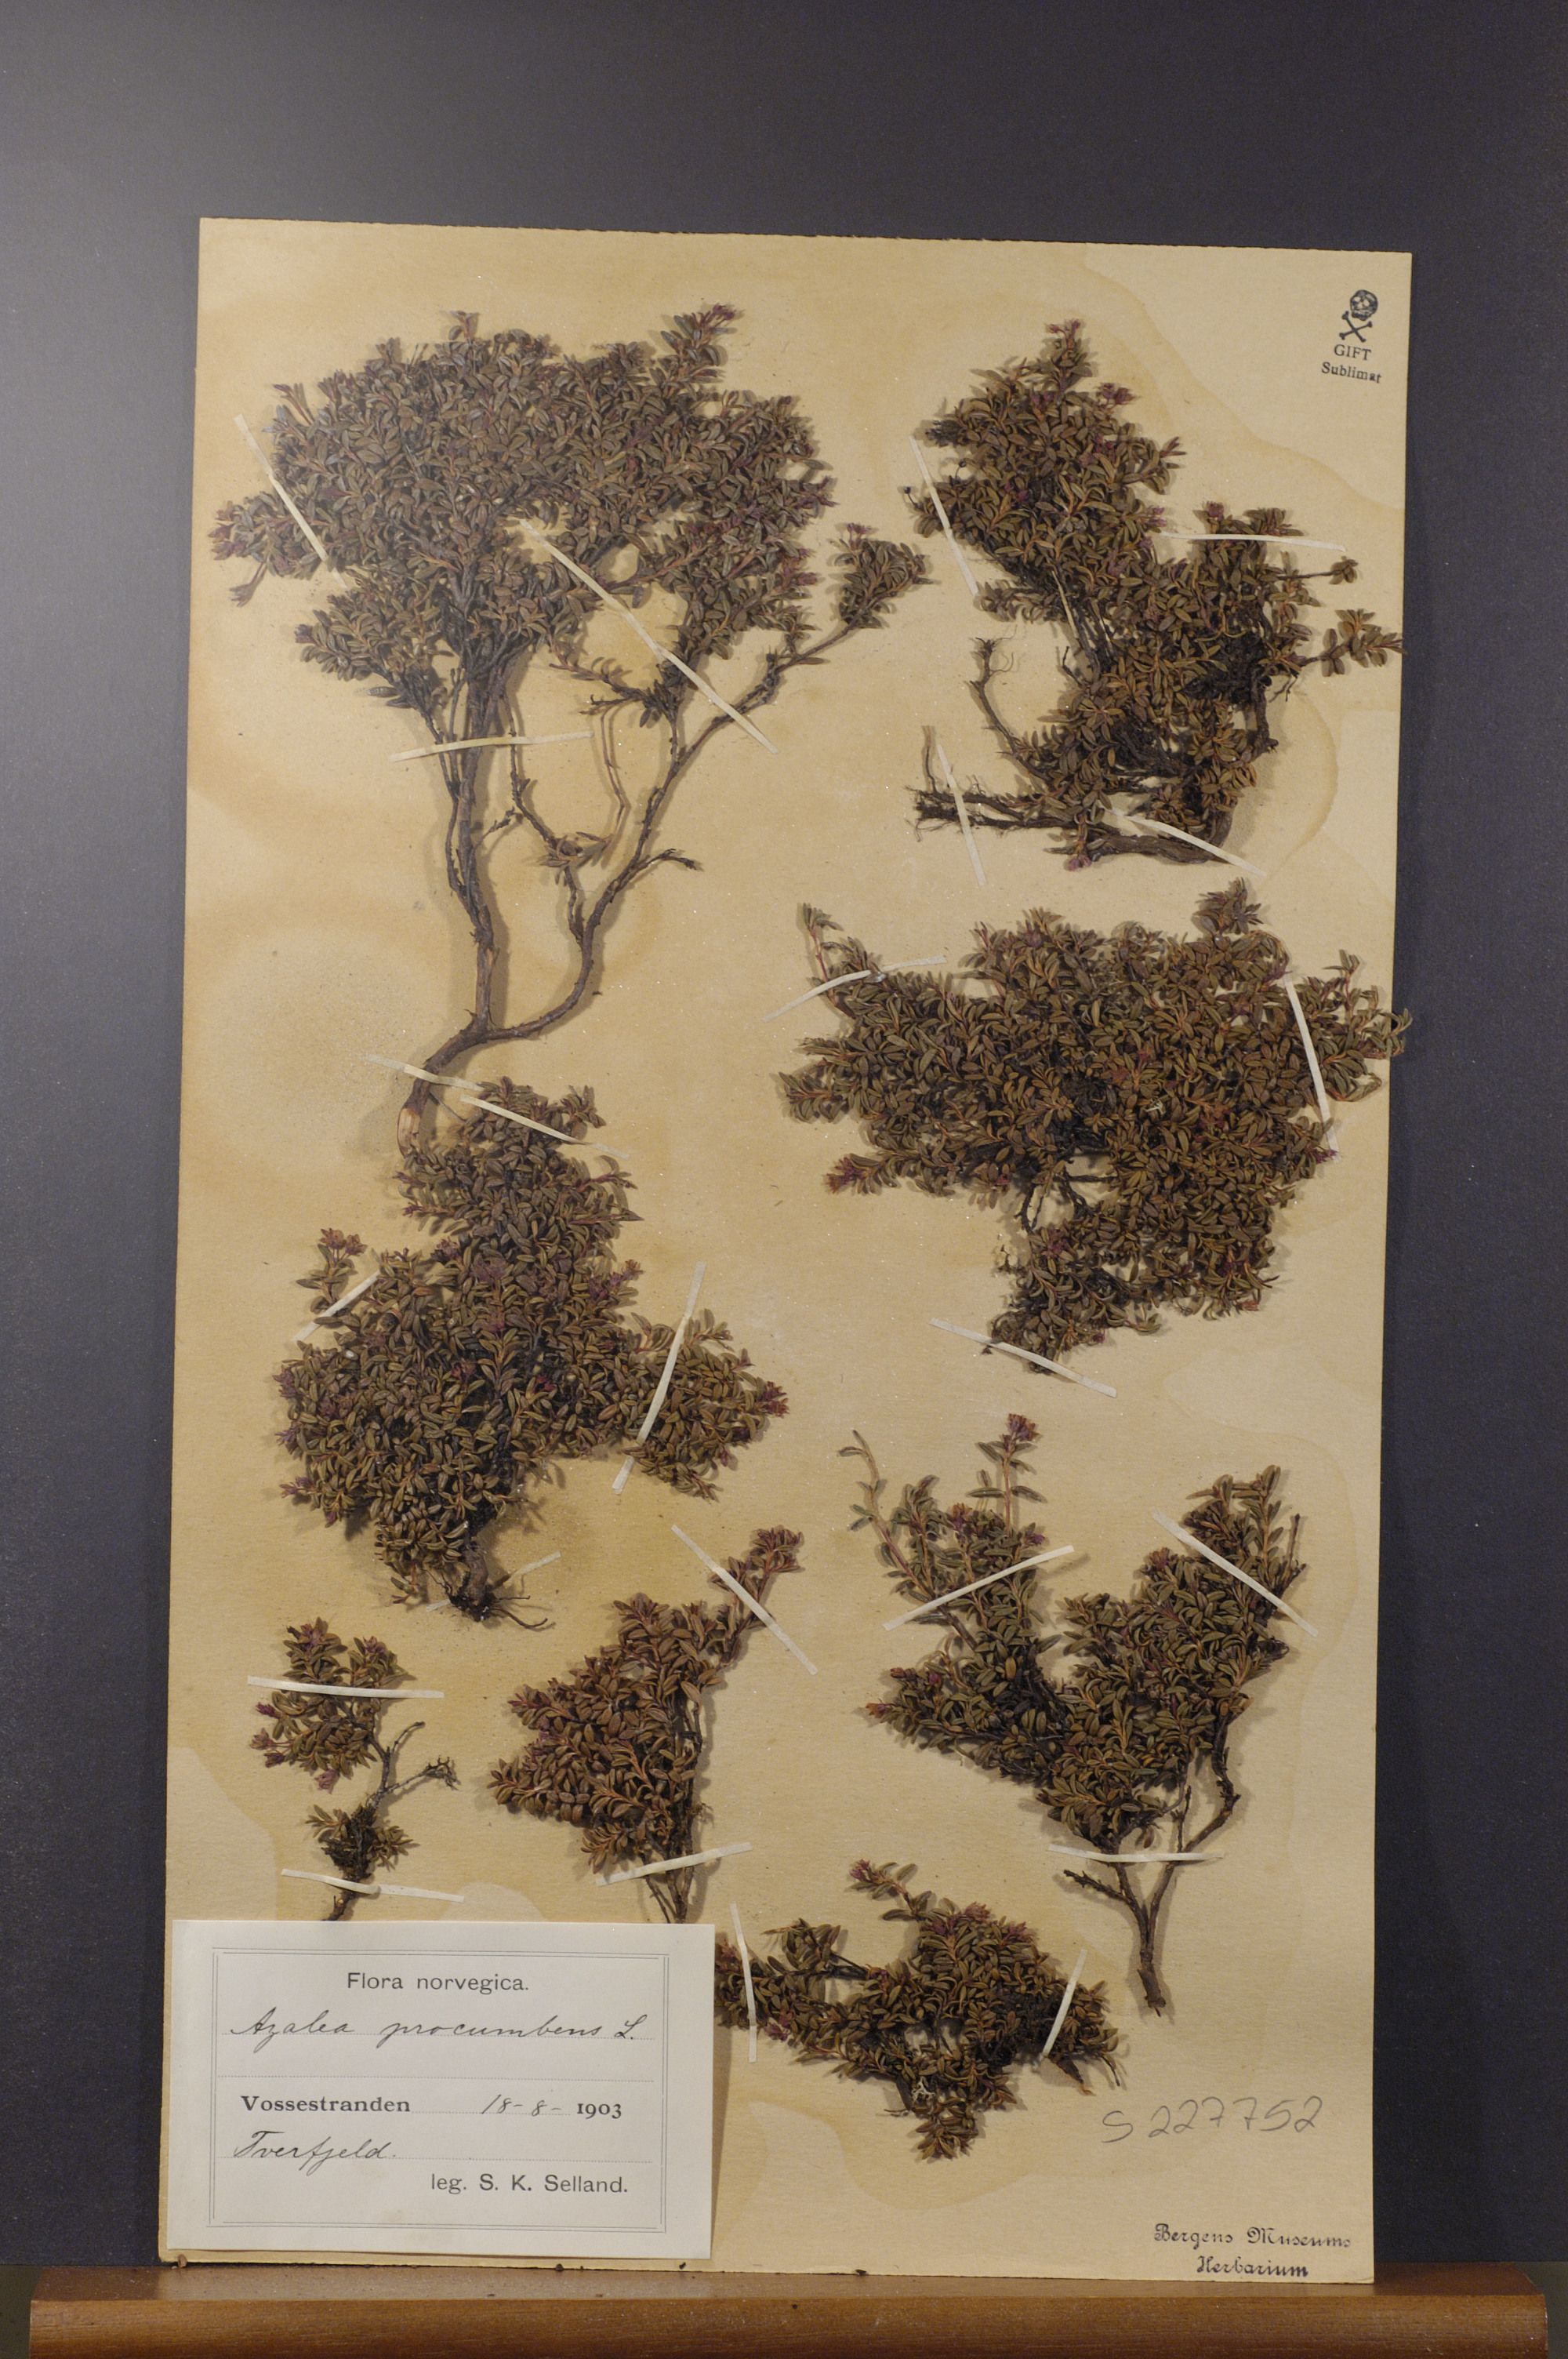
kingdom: Plantae
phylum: Tracheophyta
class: Magnoliopsida
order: Ericales
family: Ericaceae
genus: Kalmia
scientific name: Kalmia procumbens
